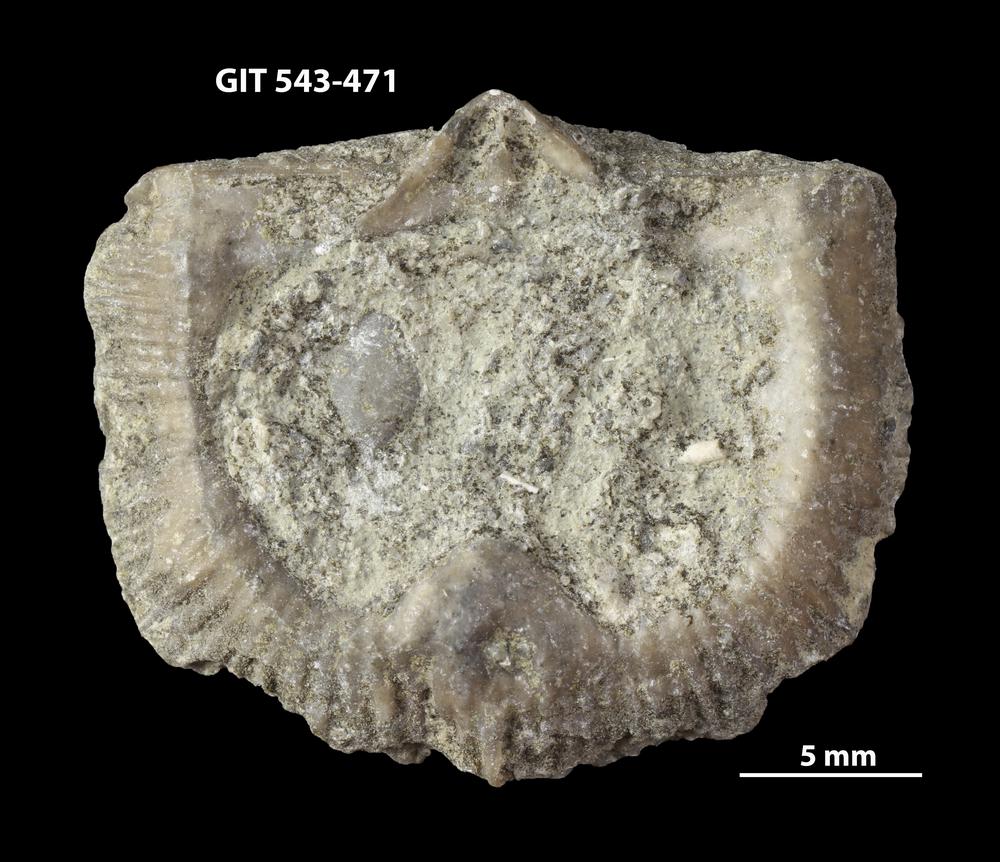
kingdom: Animalia
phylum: Brachiopoda
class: Rhynchonellata
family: Clitambonitidae
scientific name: Clitambonitidae
